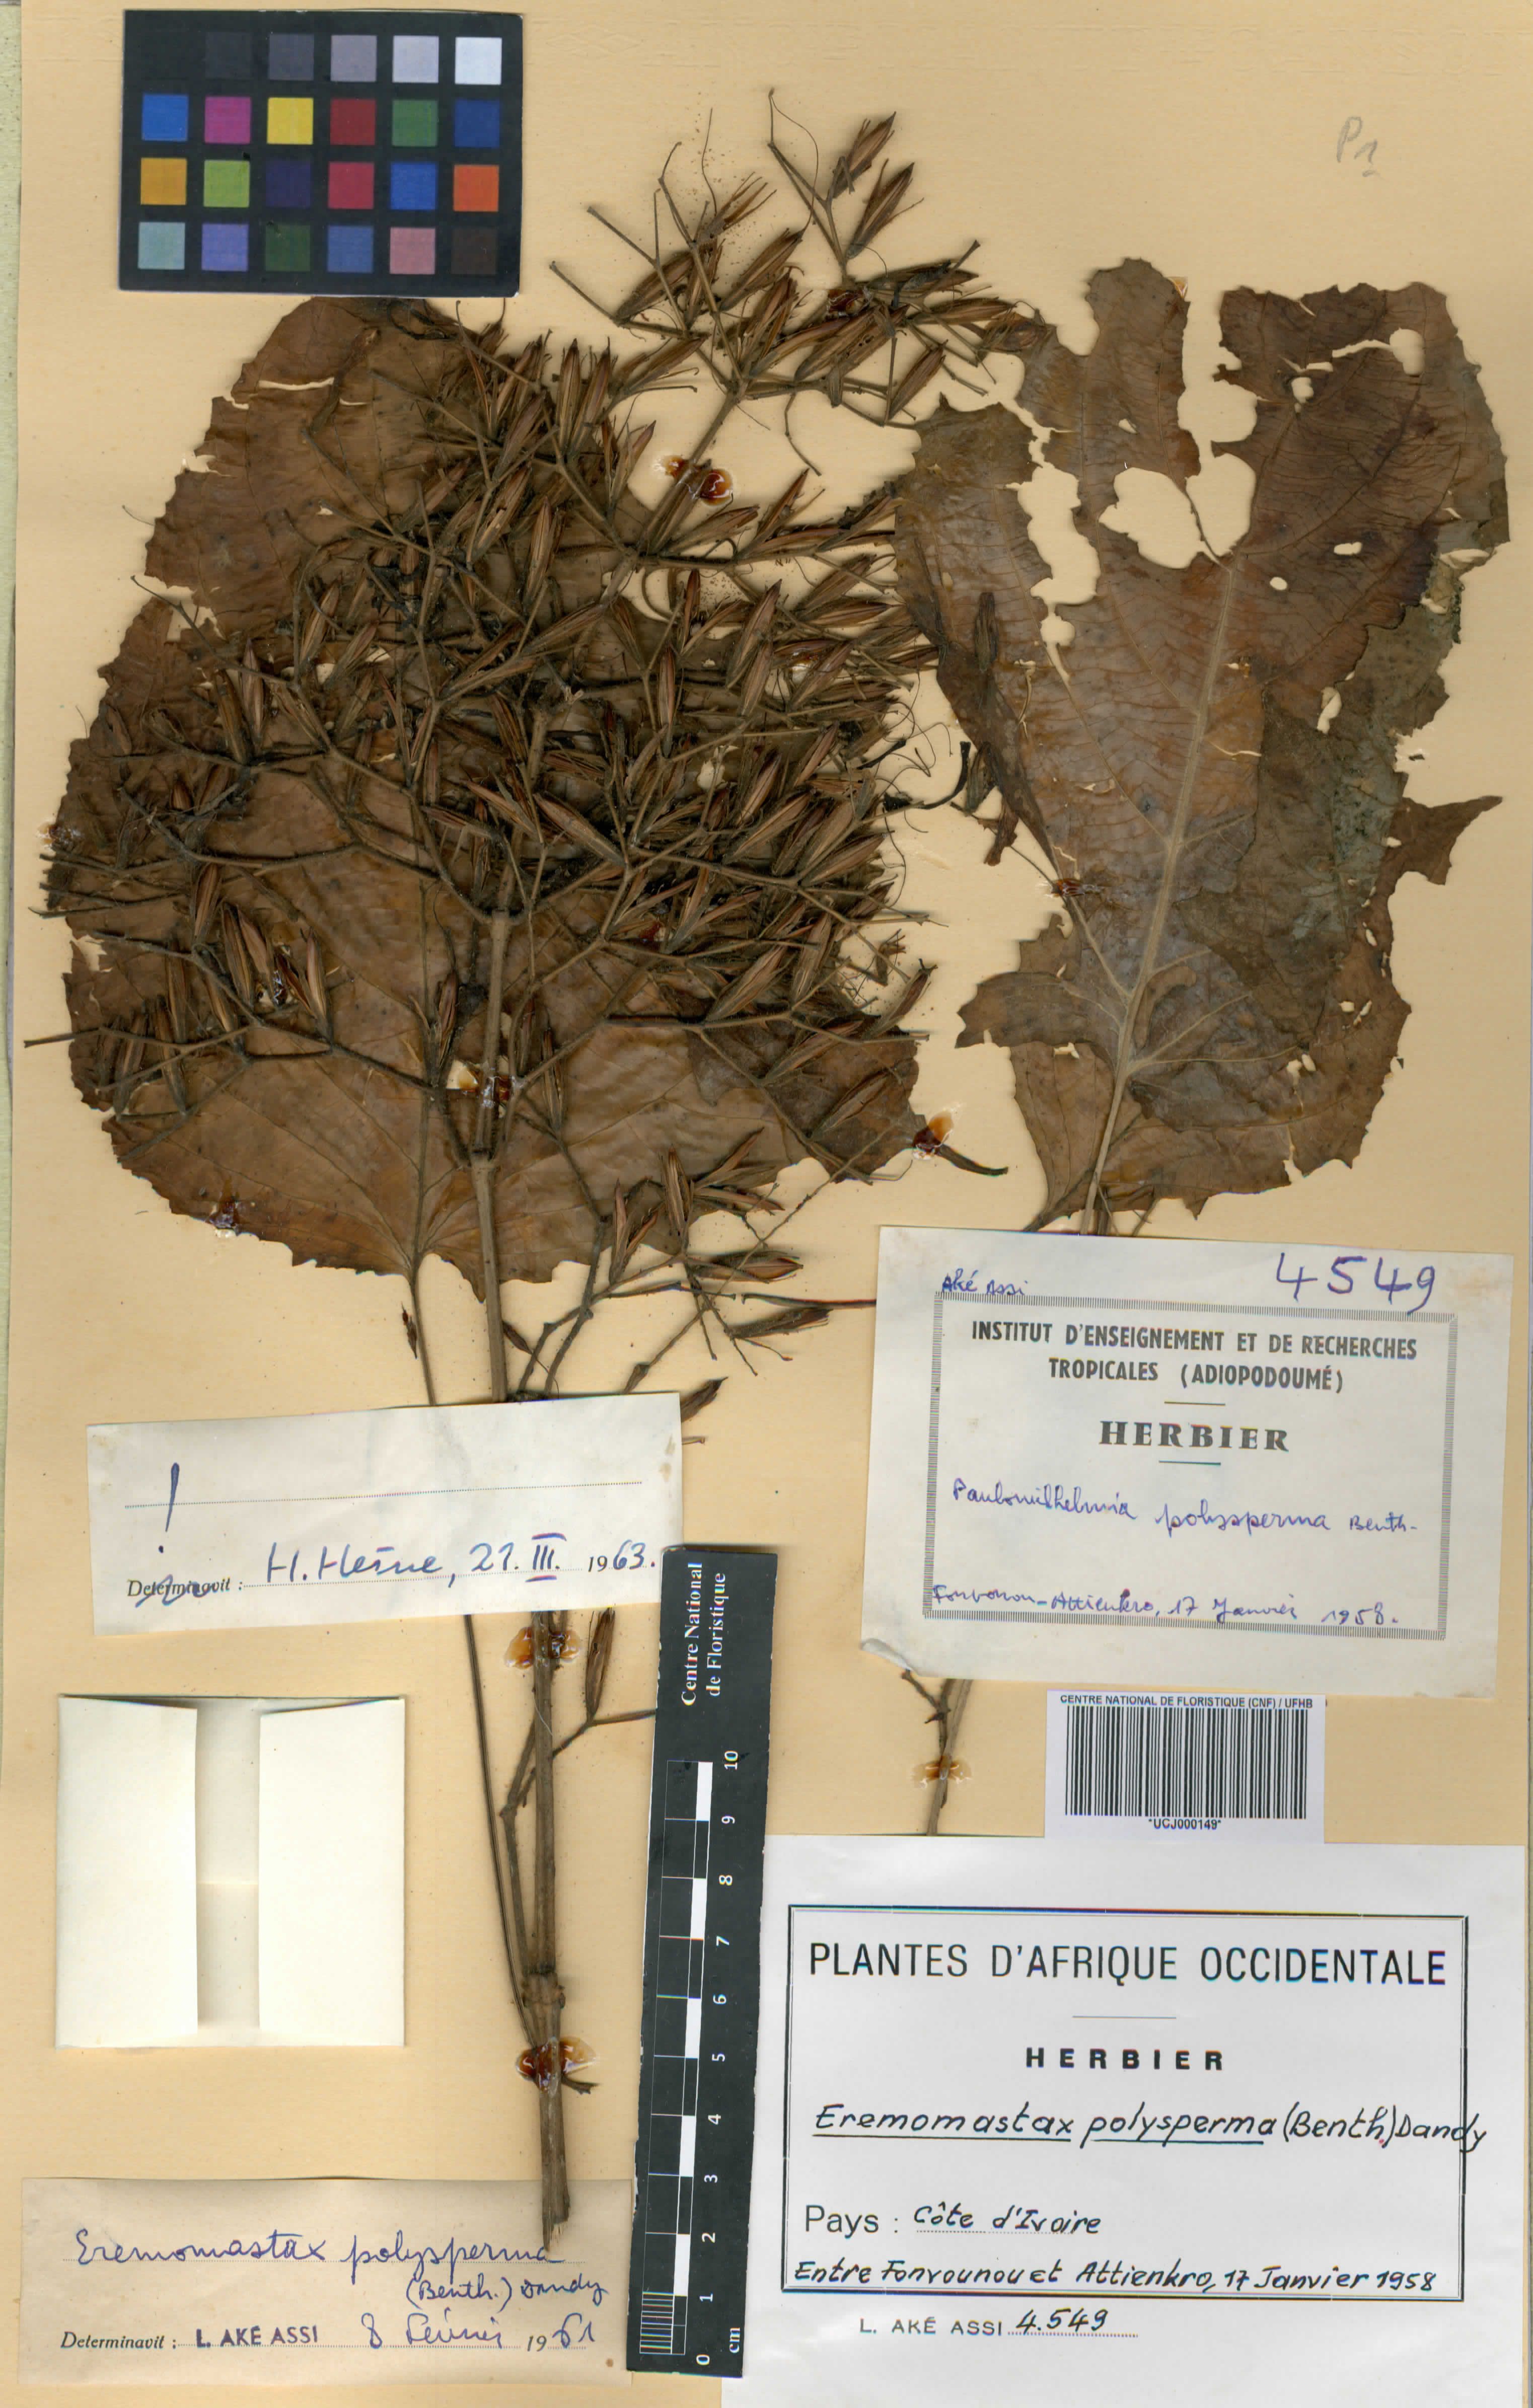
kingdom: Plantae
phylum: Tracheophyta
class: Magnoliopsida
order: Lamiales
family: Acanthaceae
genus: Eremomastax
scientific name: Eremomastax speciosa
